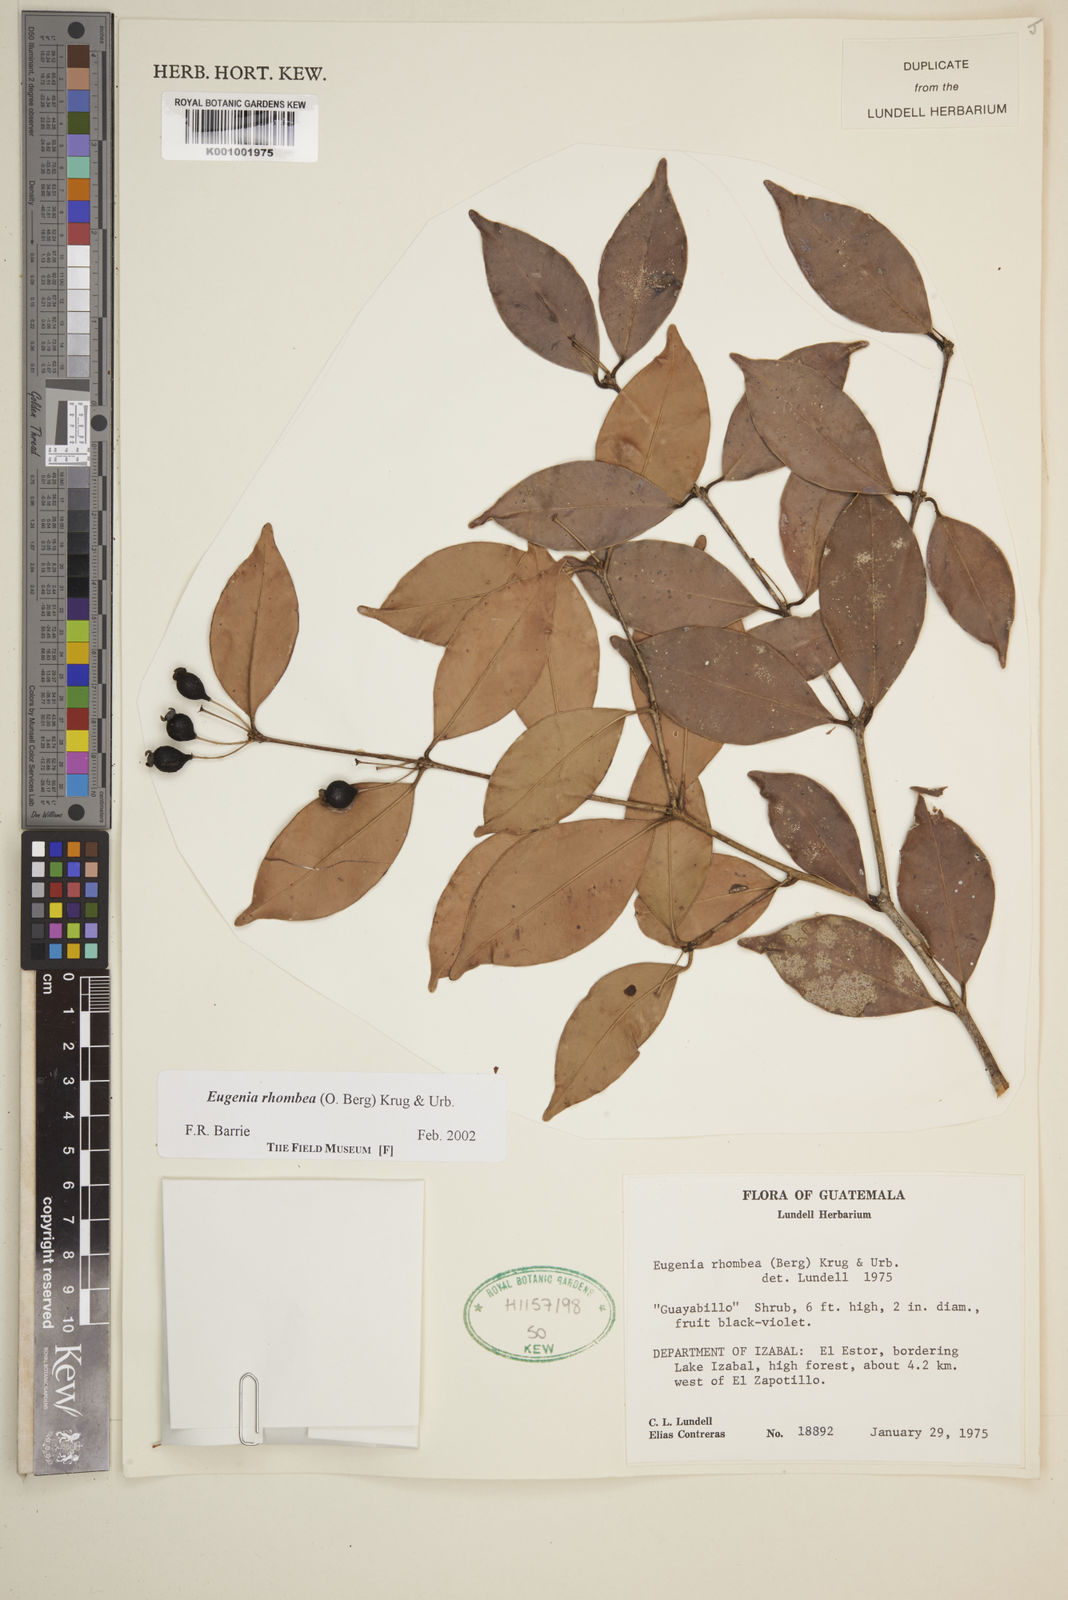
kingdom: Plantae
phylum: Tracheophyta
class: Magnoliopsida
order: Myrtales
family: Myrtaceae
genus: Eugenia
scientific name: Eugenia rhombea
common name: Pigeon berry
